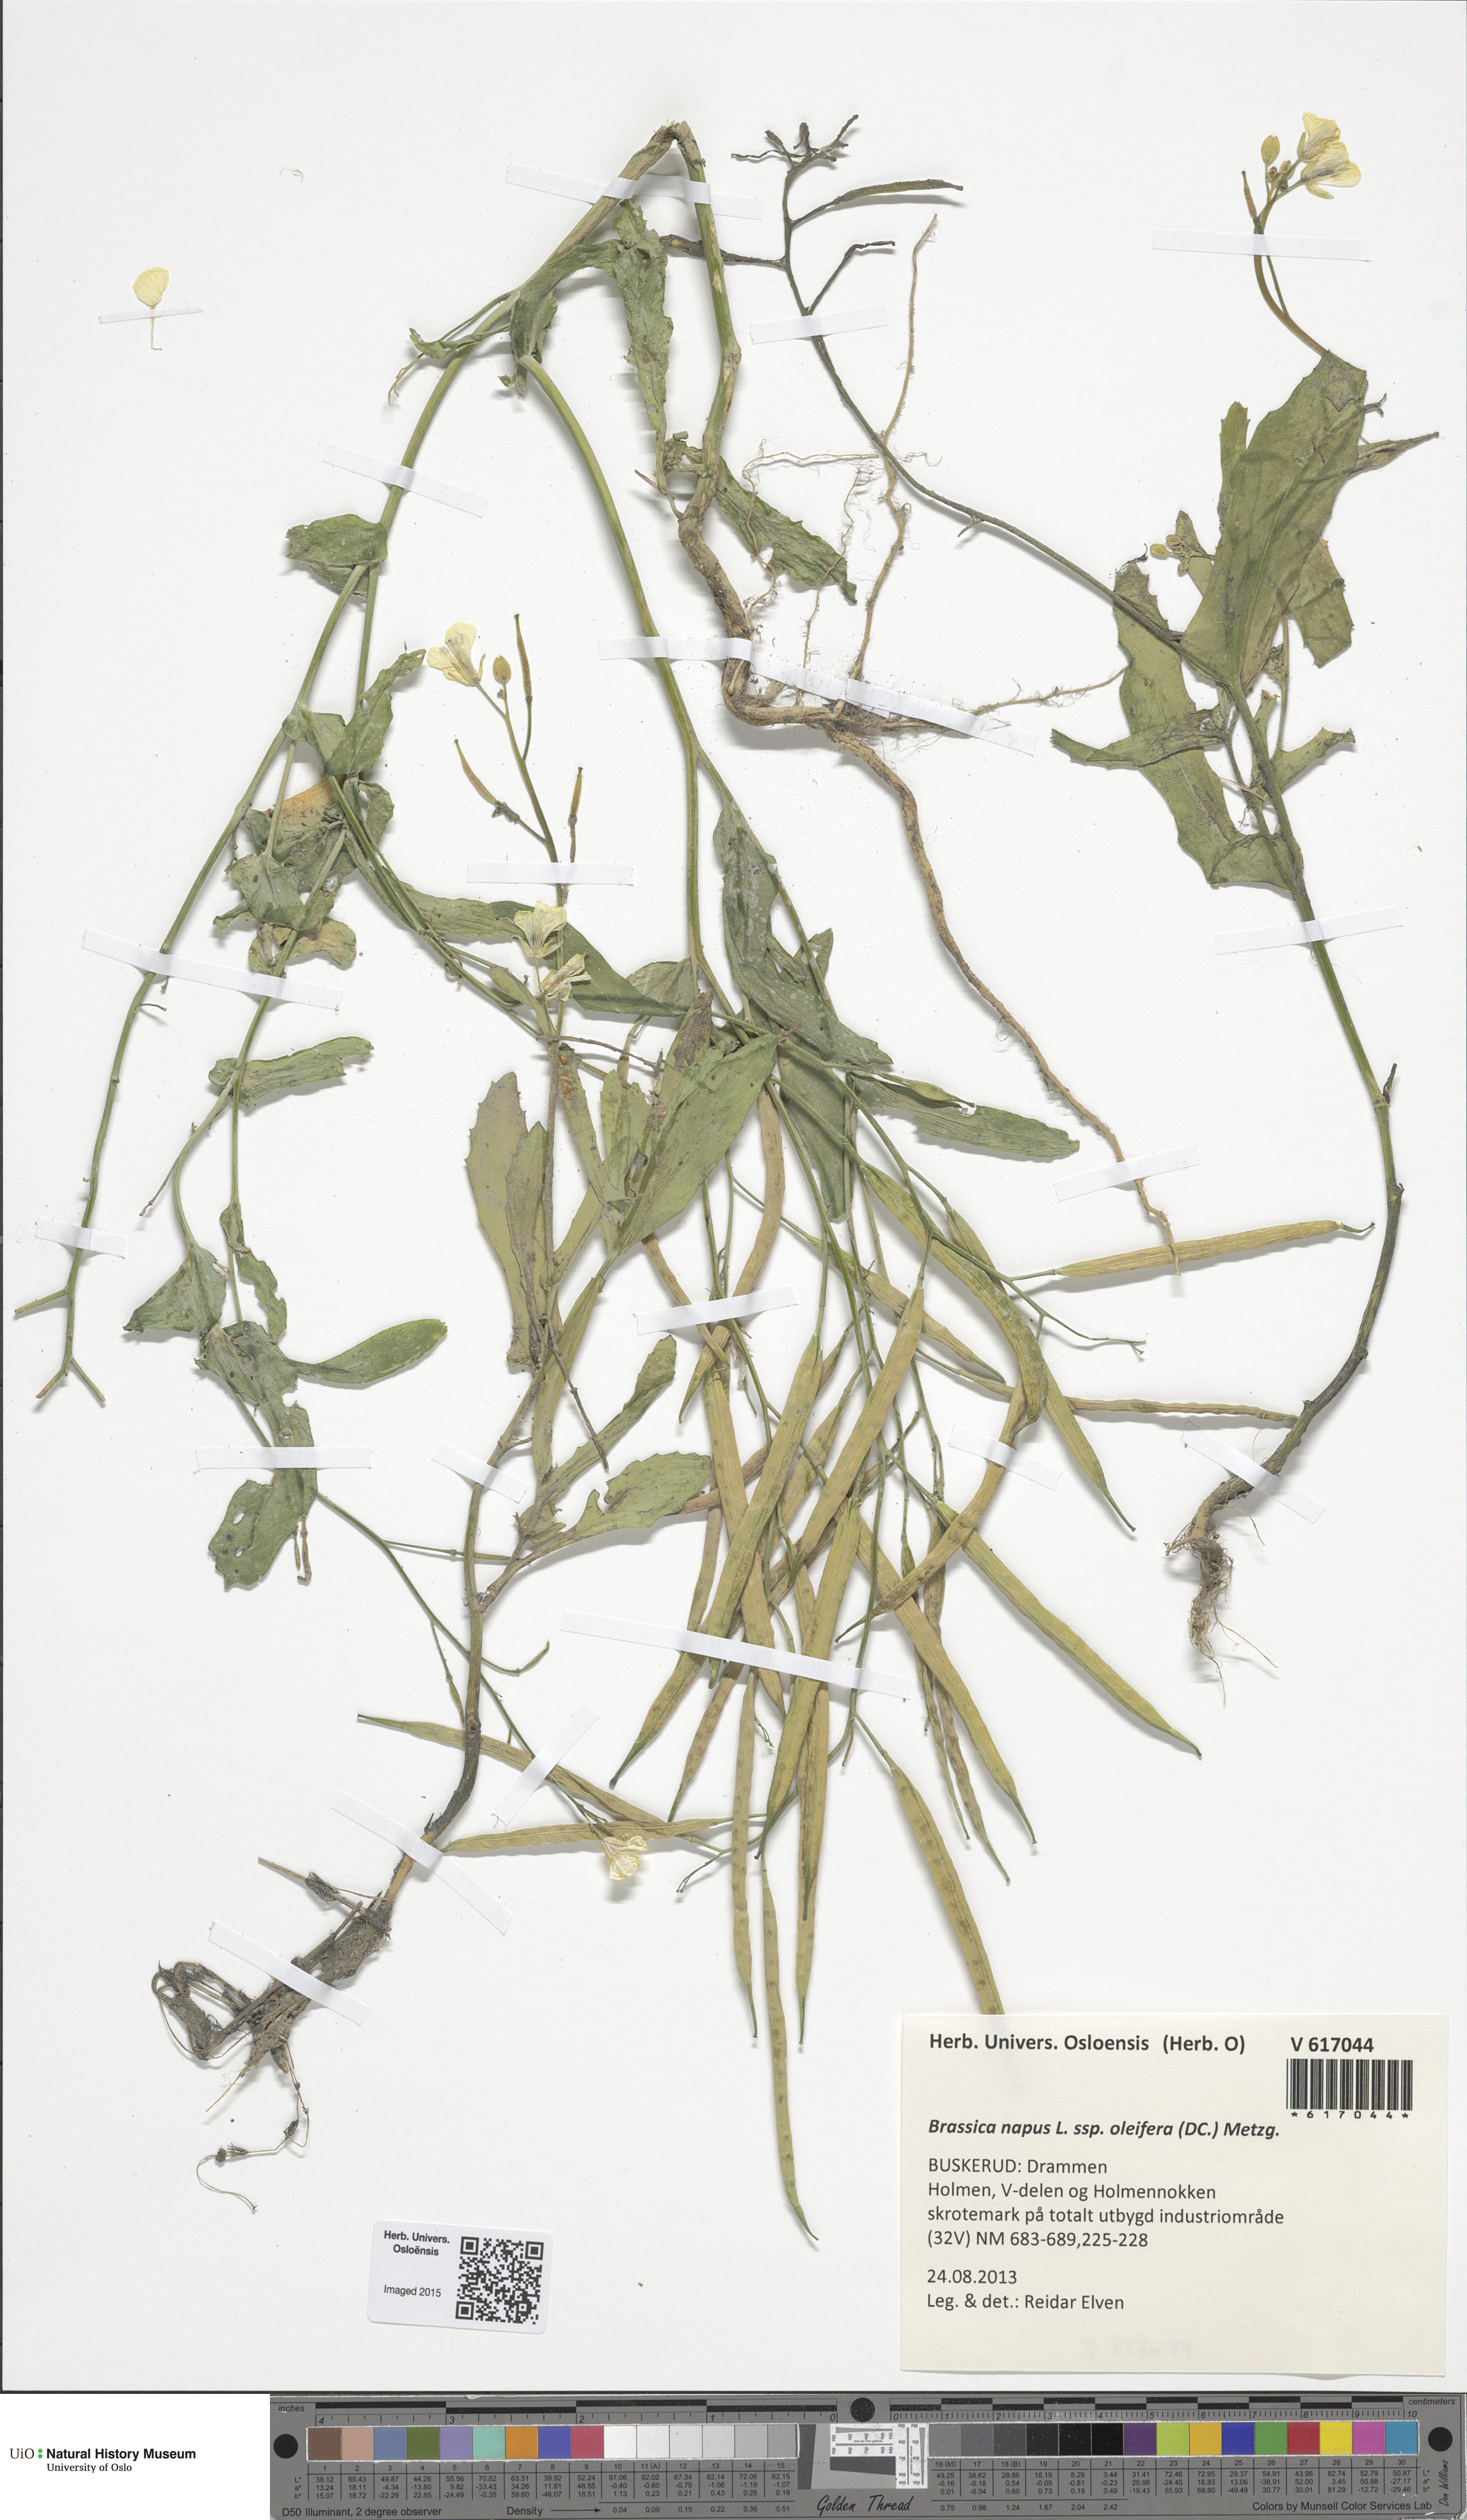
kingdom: Plantae
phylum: Tracheophyta
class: Magnoliopsida
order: Brassicales
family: Brassicaceae
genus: Brassica
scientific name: Brassica napus
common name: Rape
